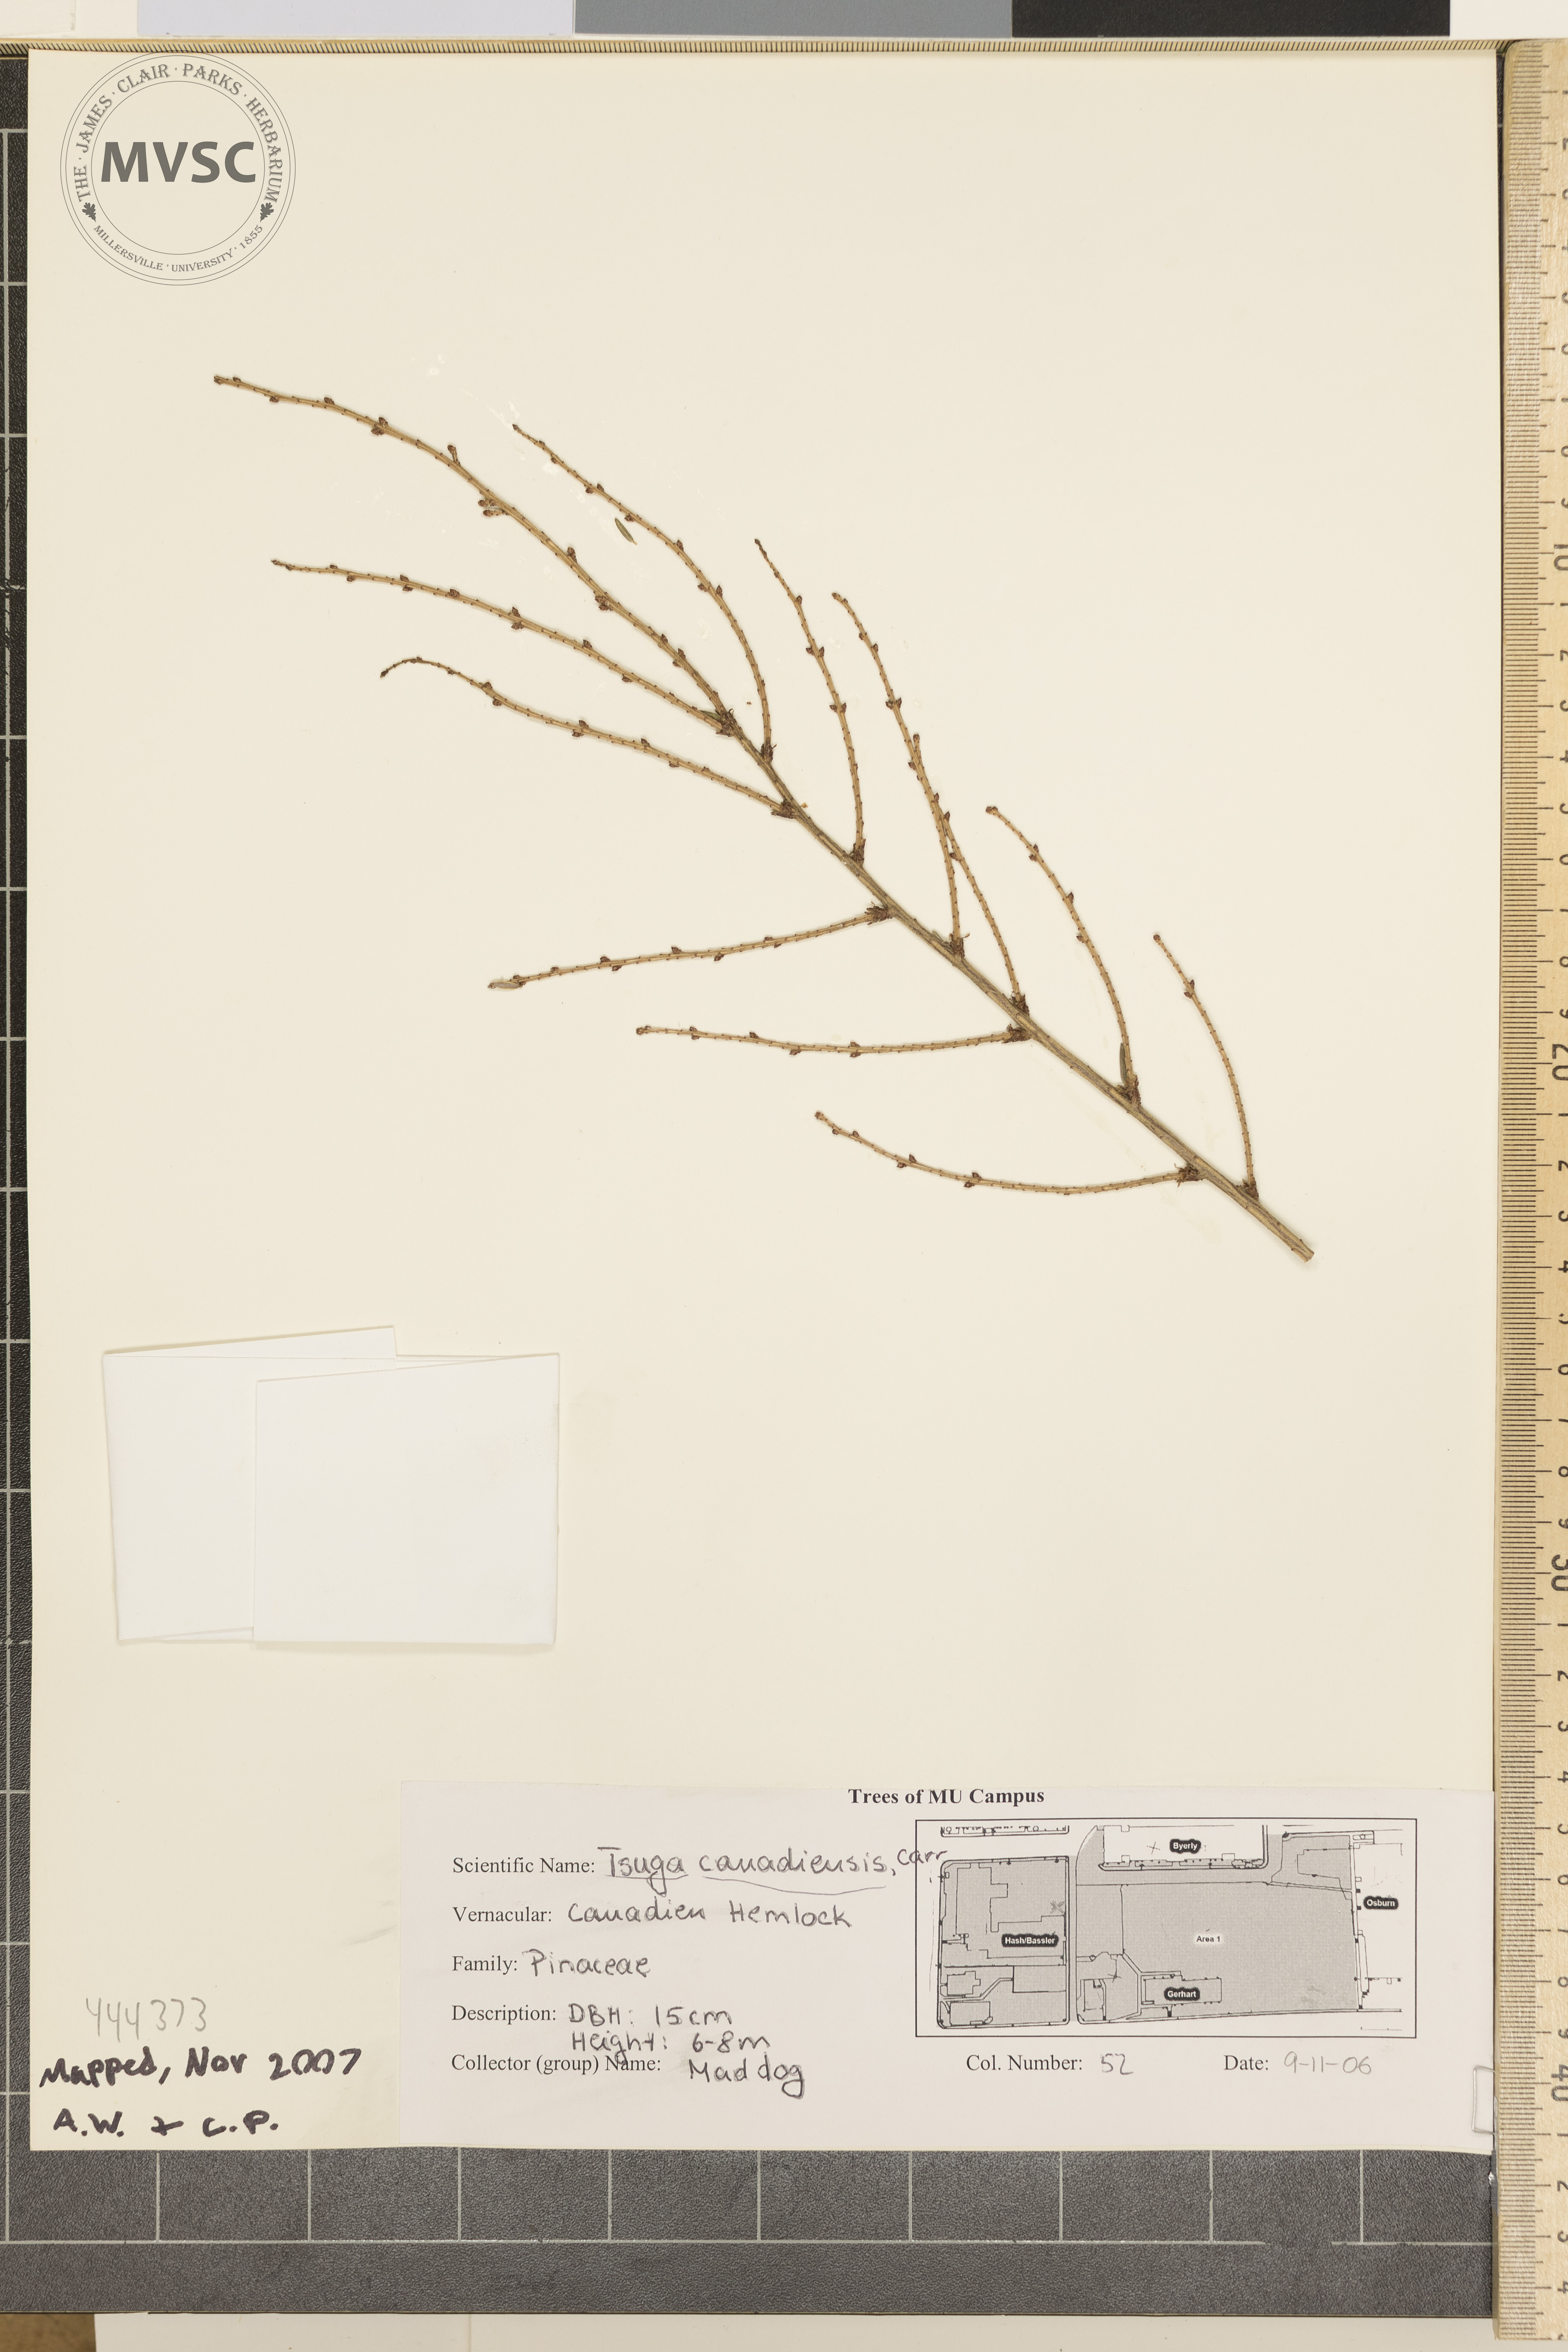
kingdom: Plantae
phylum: Tracheophyta
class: Pinopsida
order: Pinales
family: Pinaceae
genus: Tsuga
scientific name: Tsuga canadensis
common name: Canadian hemlock
